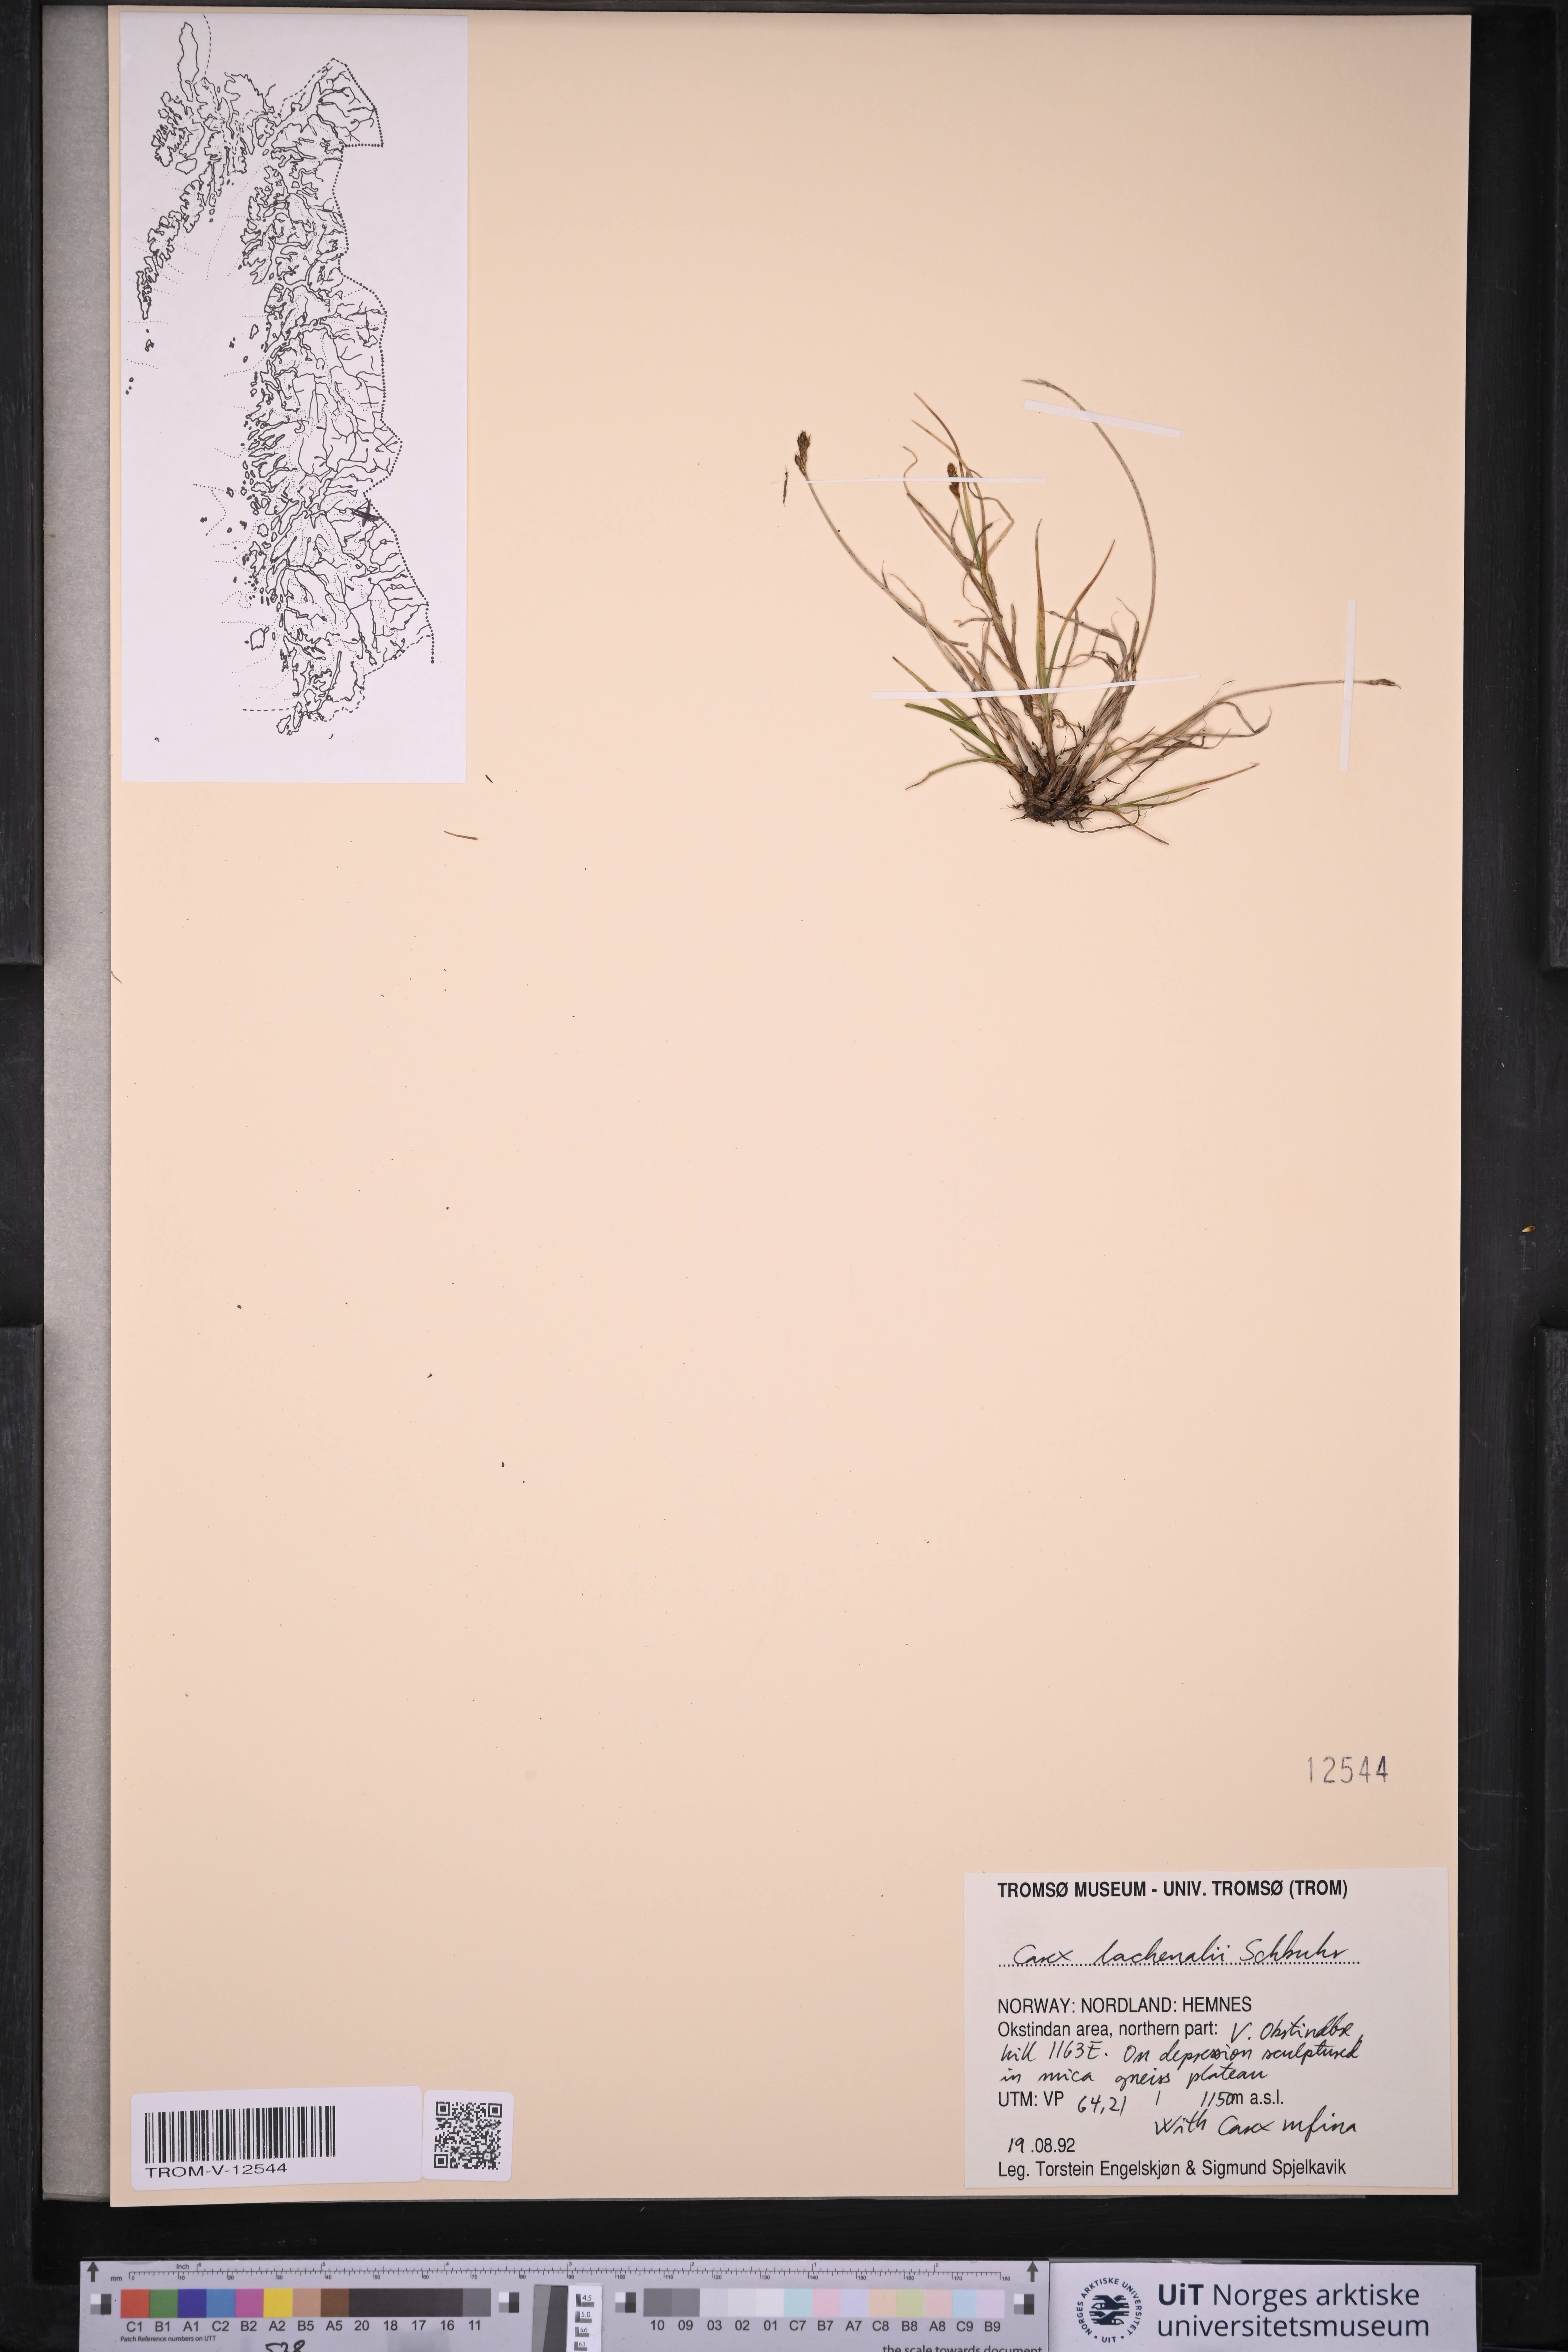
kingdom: Plantae
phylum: Tracheophyta
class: Liliopsida
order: Poales
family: Cyperaceae
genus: Carex
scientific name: Carex lachenalii
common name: Hare's-foot sedge
